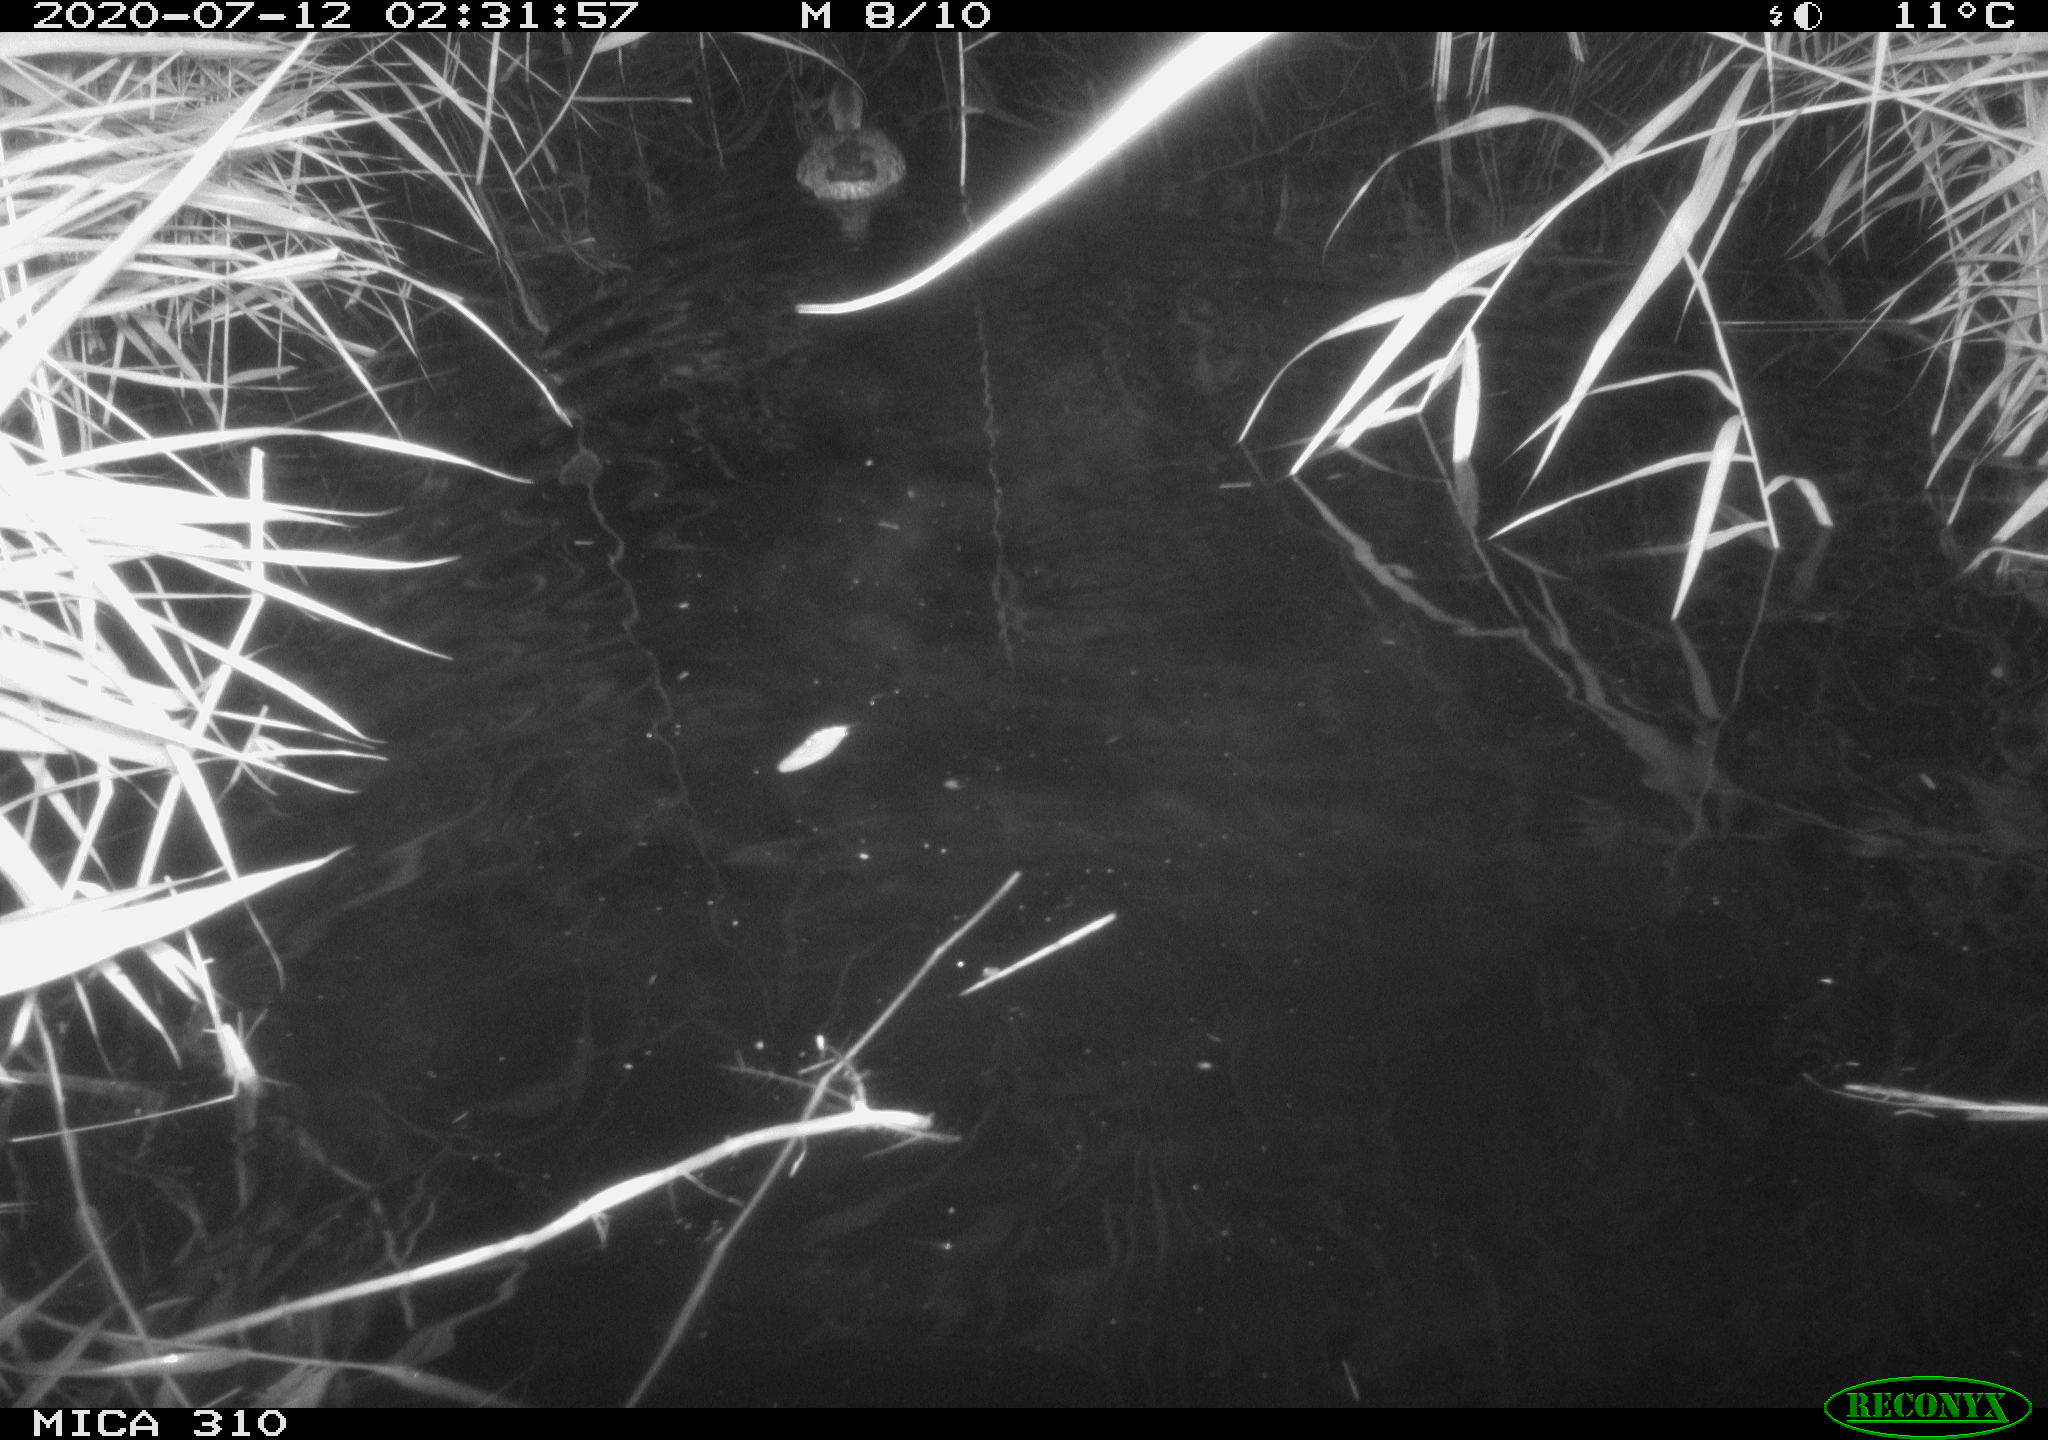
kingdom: Animalia
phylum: Chordata
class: Aves
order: Anseriformes
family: Anatidae
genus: Anas
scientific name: Anas platyrhynchos
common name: Mallard
